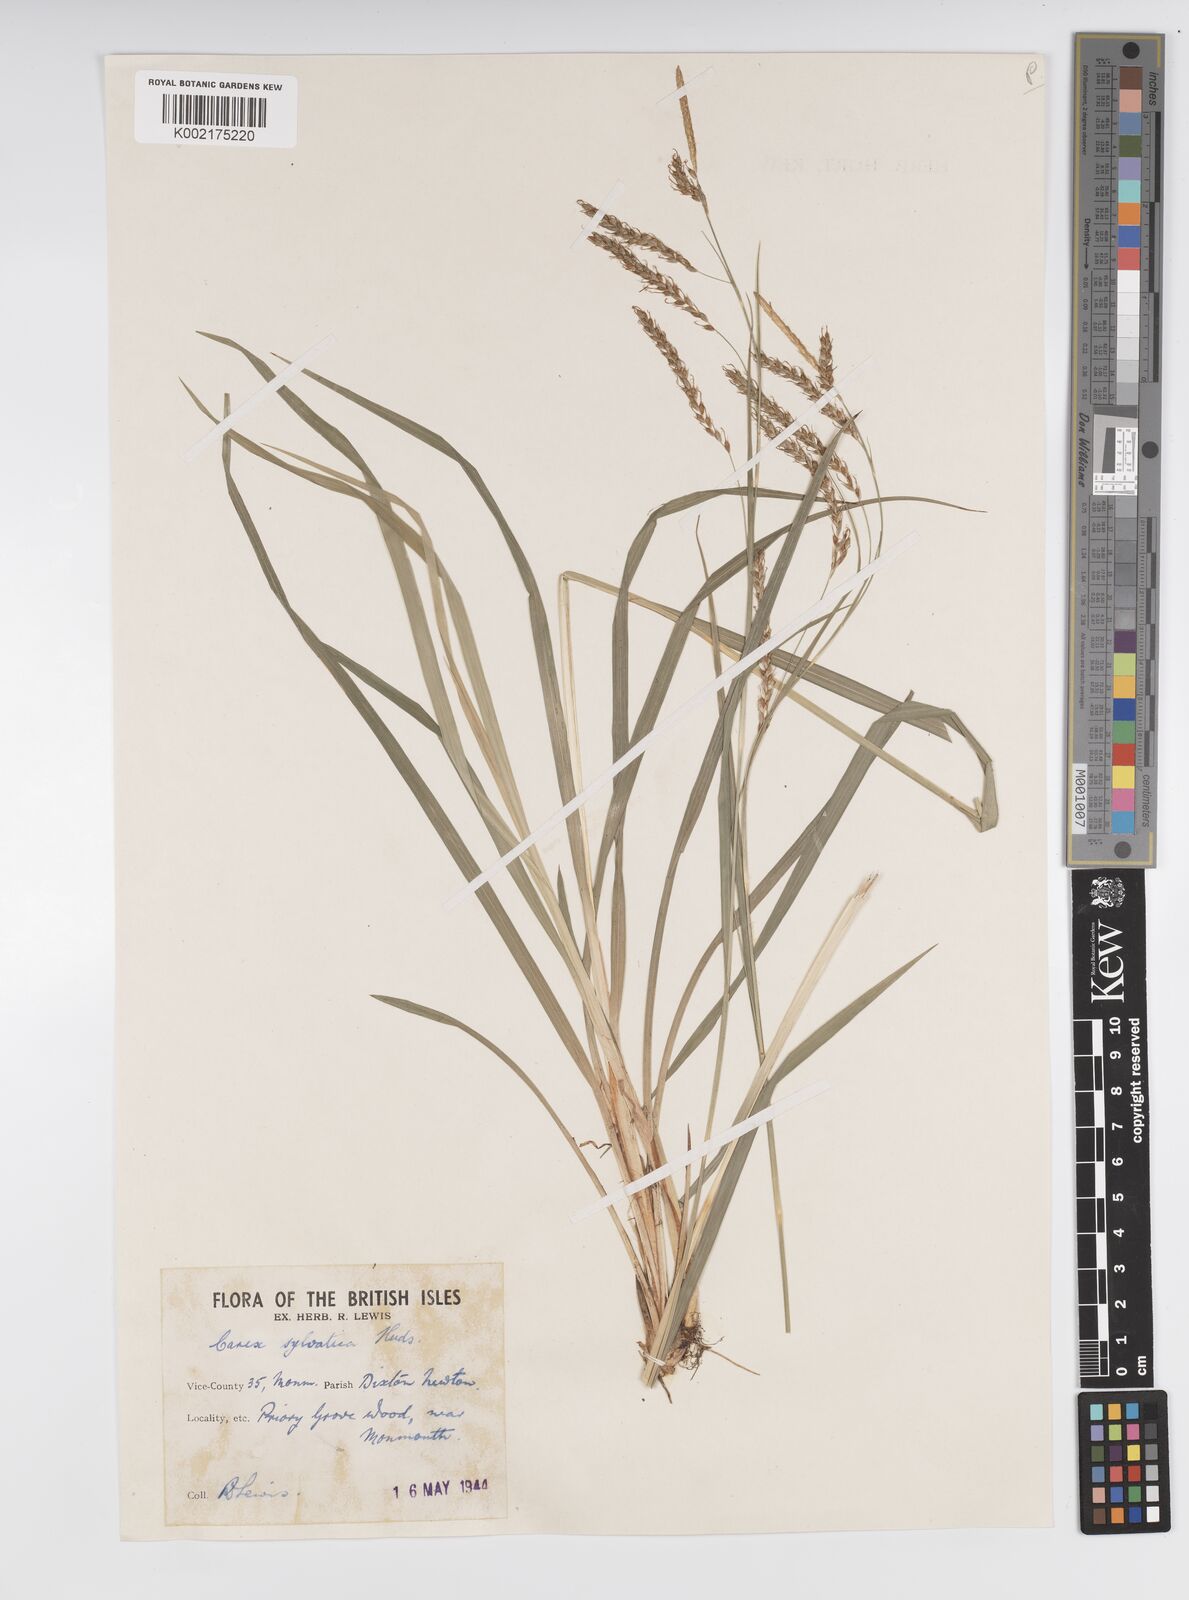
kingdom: Plantae
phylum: Tracheophyta
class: Liliopsida
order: Poales
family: Cyperaceae
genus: Carex
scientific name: Carex sylvatica
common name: Wood-sedge
